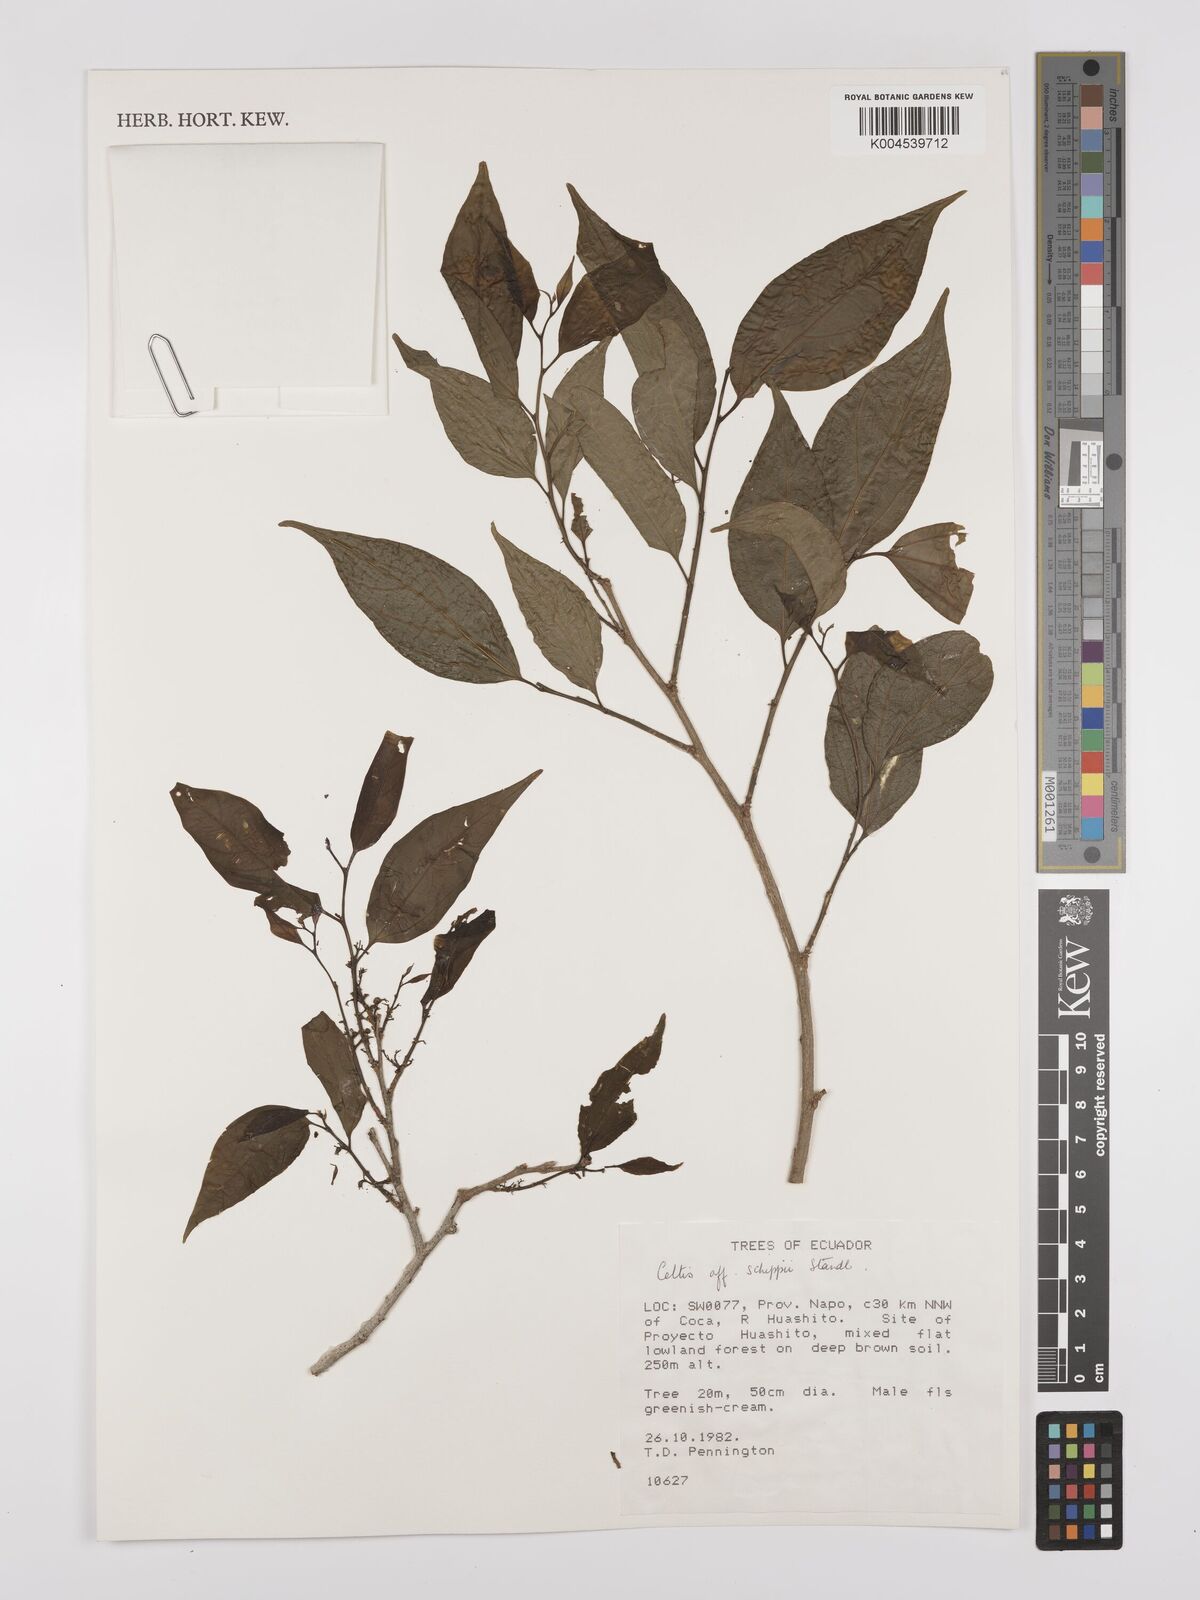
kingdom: Plantae
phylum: Tracheophyta
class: Magnoliopsida
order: Rosales
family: Cannabaceae
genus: Celtis
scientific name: Celtis schippii
